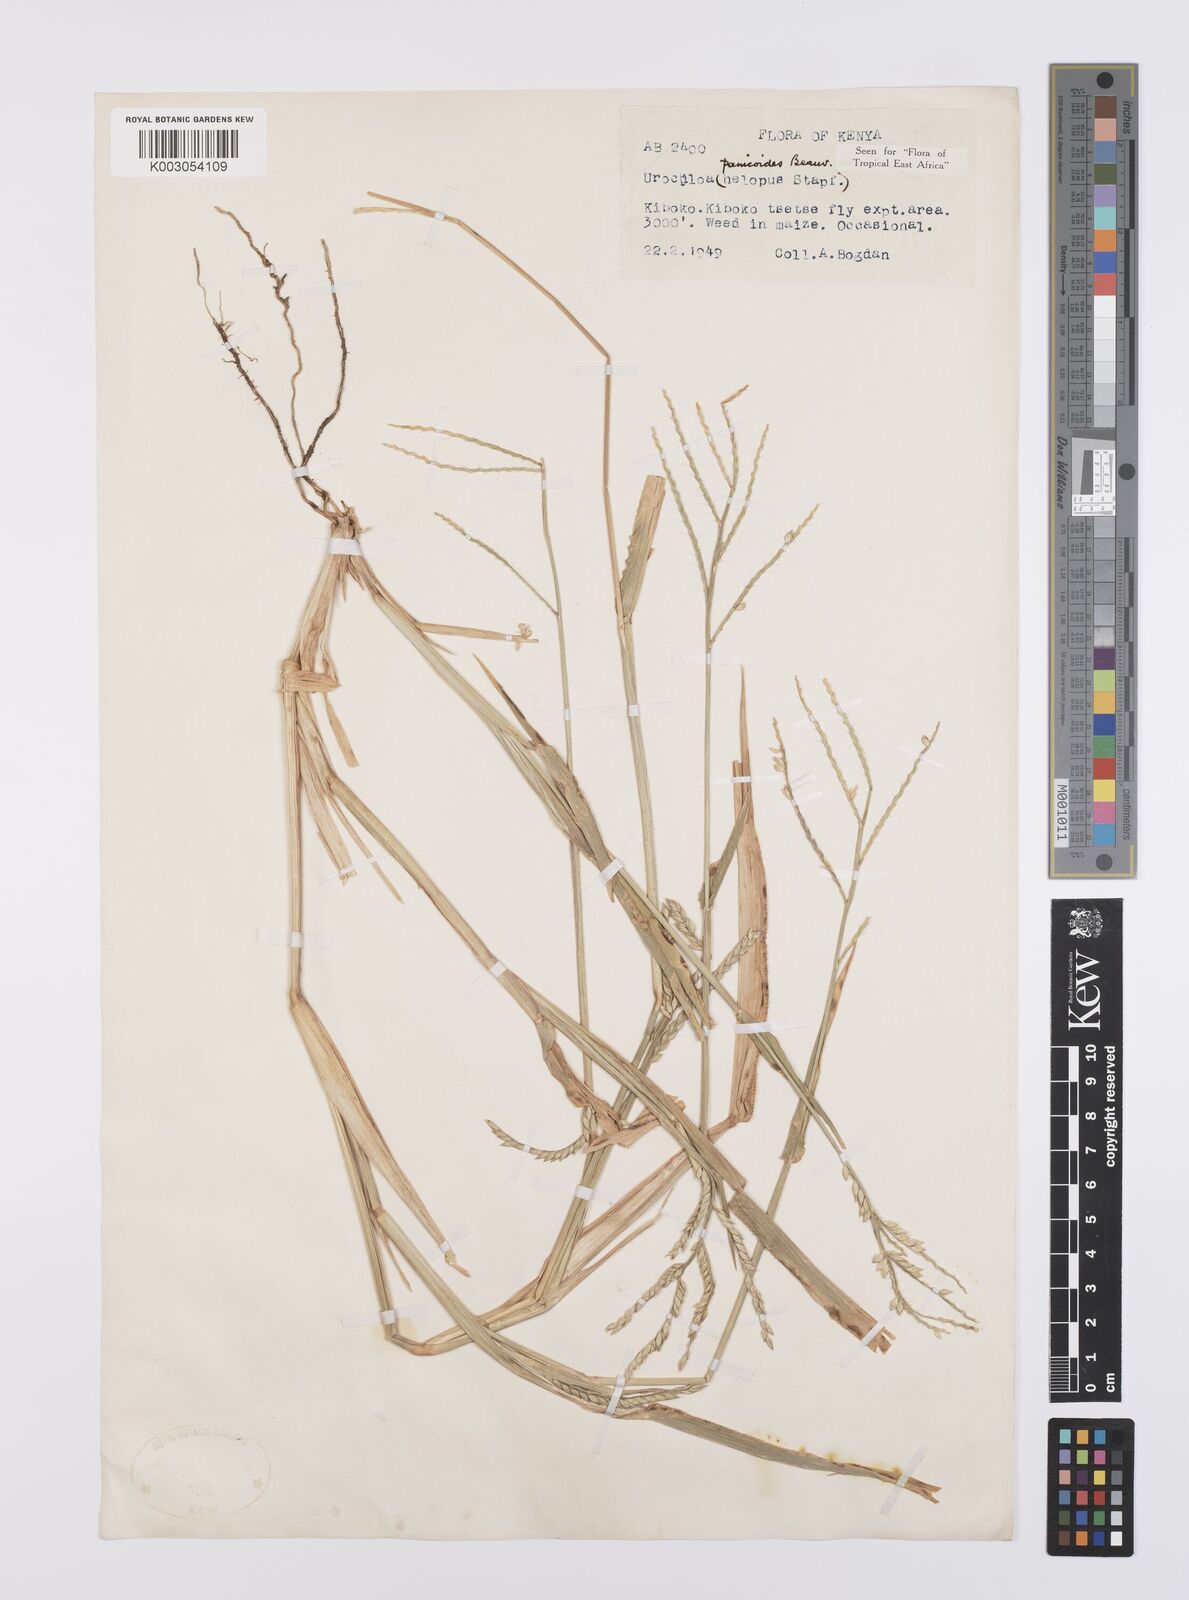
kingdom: Plantae
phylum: Tracheophyta
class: Liliopsida
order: Poales
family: Poaceae
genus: Urochloa
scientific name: Urochloa panicoides
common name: Sharp-flowered signal-grass
